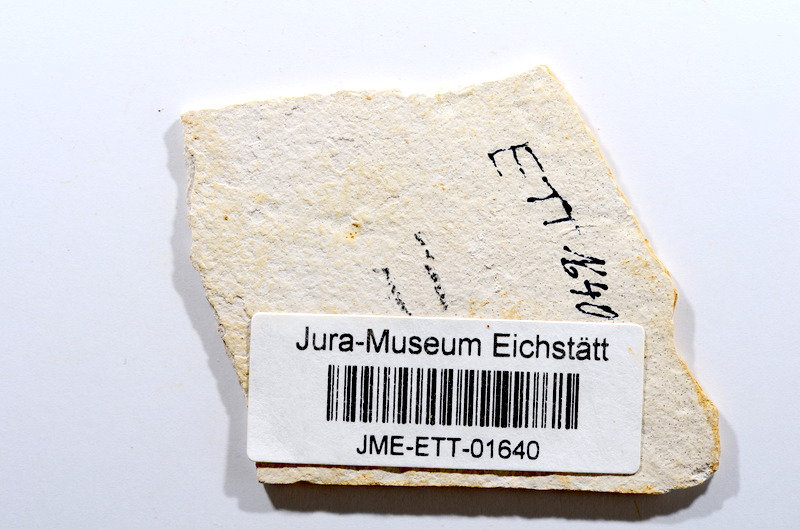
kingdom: Animalia
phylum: Chordata
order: Salmoniformes
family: Orthogonikleithridae
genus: Orthogonikleithrus
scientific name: Orthogonikleithrus hoelli
